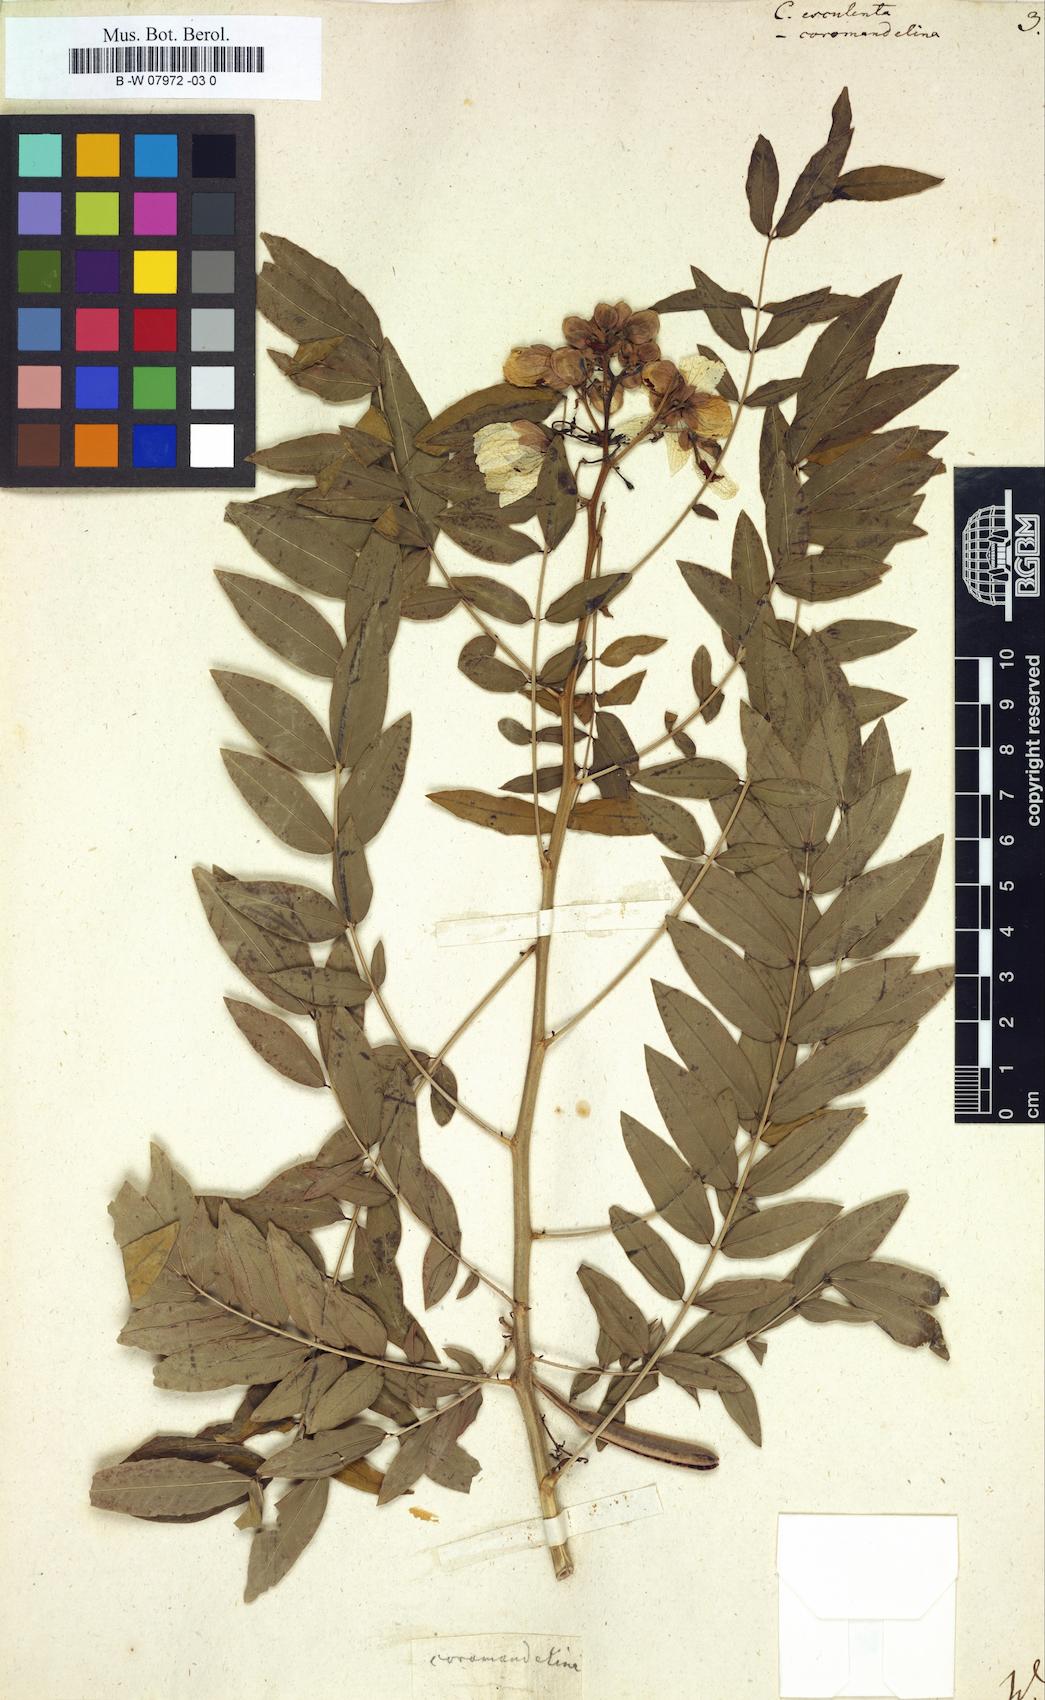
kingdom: Plantae
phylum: Tracheophyta
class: Magnoliopsida
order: Fabales
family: Fabaceae
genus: Senna
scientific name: Senna sophera
